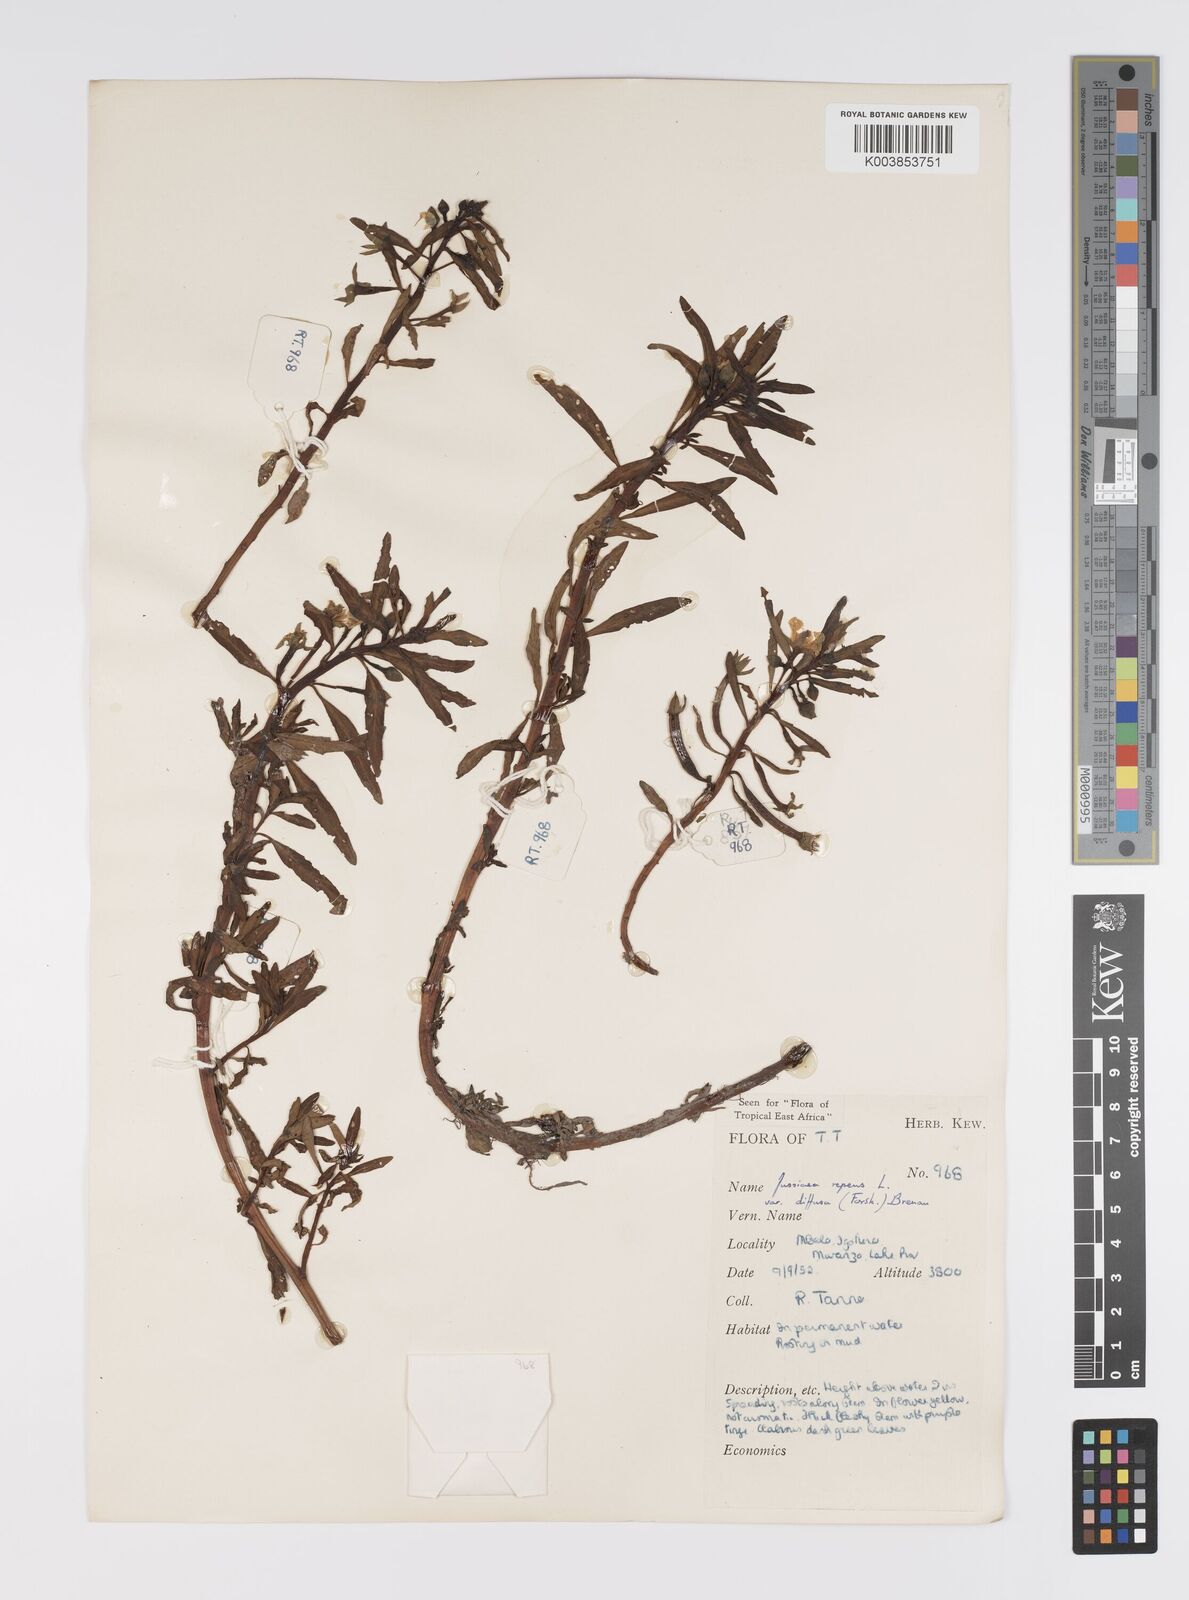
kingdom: Plantae
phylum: Tracheophyta
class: Magnoliopsida
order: Myrtales
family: Onagraceae
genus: Ludwigia
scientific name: Ludwigia adscendens
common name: Creeping water primrose
